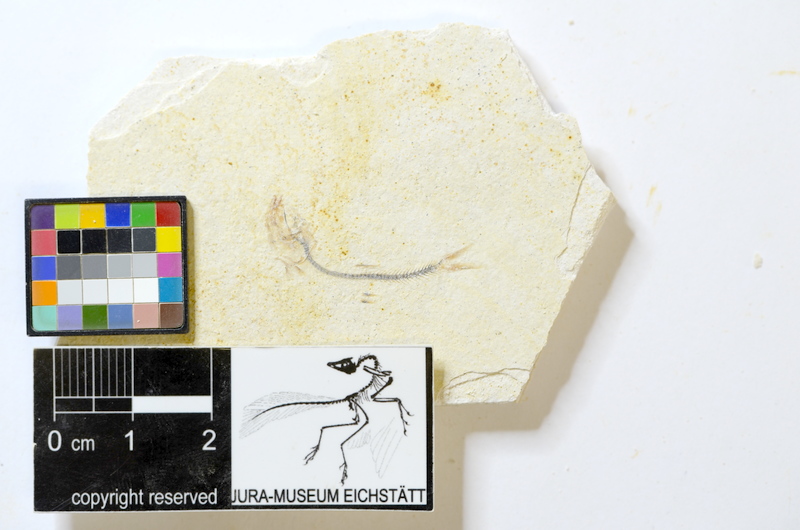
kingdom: Animalia
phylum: Chordata
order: Salmoniformes
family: Orthogonikleithridae
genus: Orthogonikleithrus
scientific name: Orthogonikleithrus hoelli
